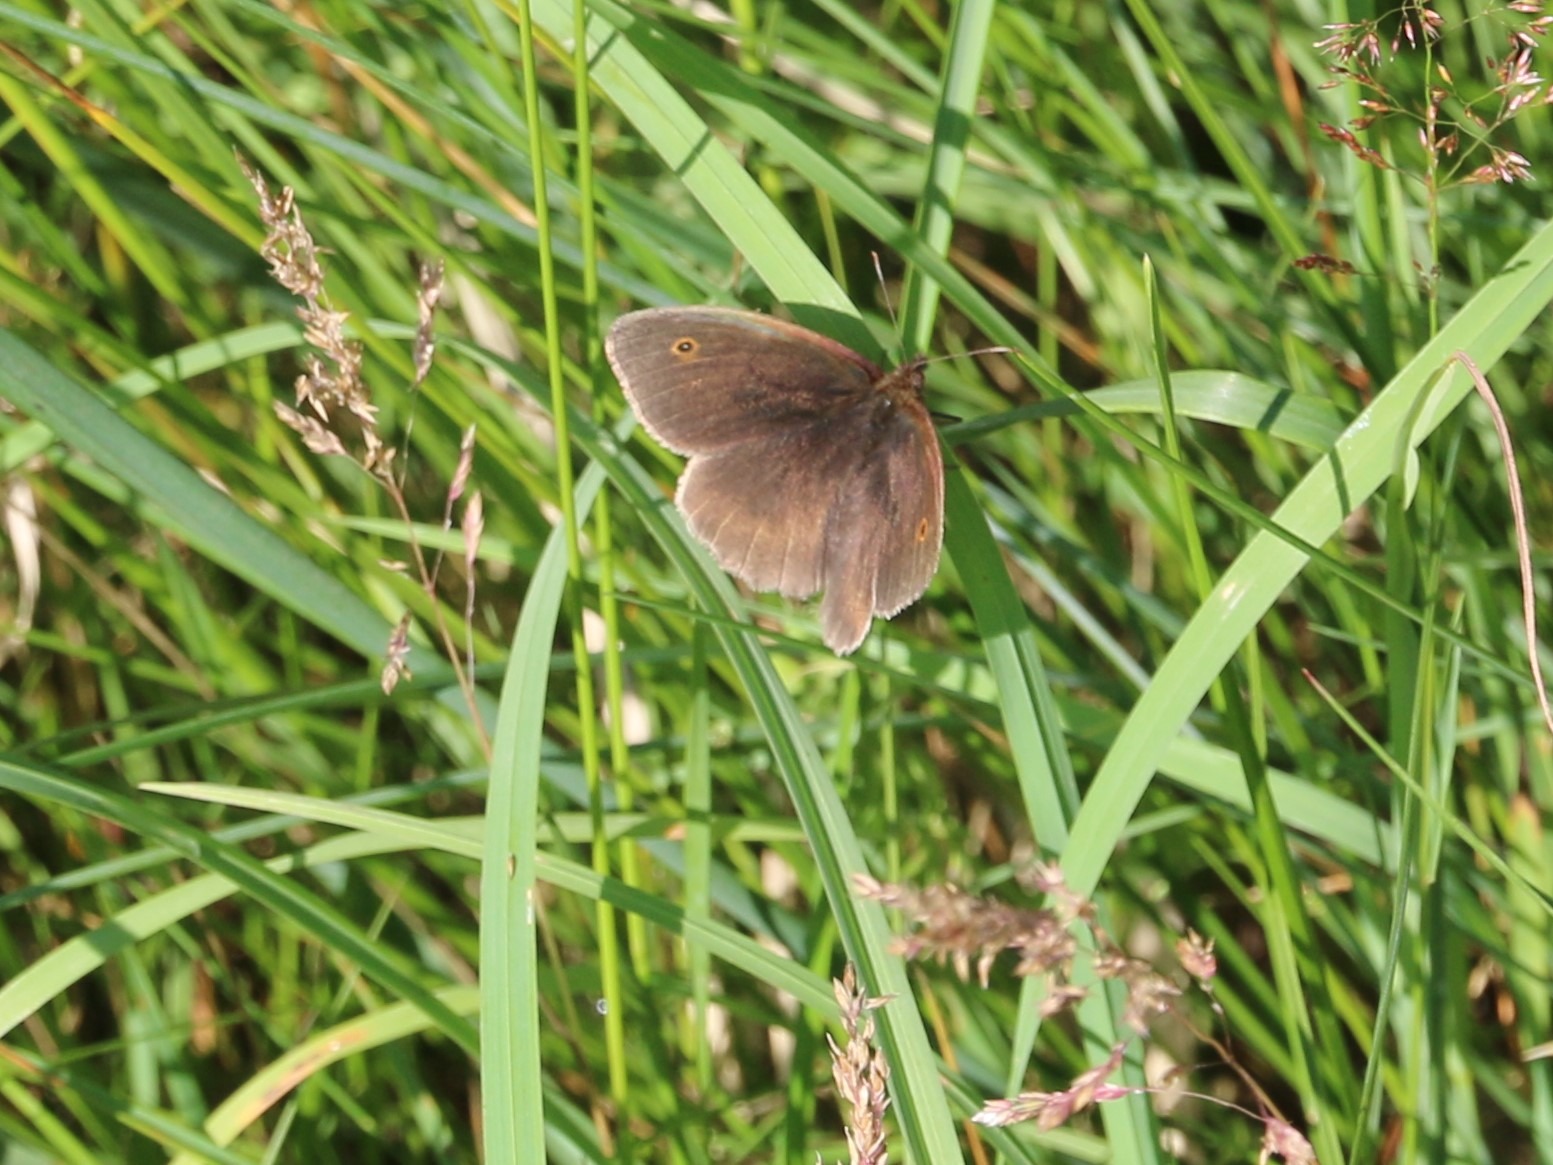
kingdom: Animalia
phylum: Arthropoda
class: Insecta
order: Lepidoptera
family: Nymphalidae
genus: Maniola
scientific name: Maniola jurtina
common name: Græsrandøje
